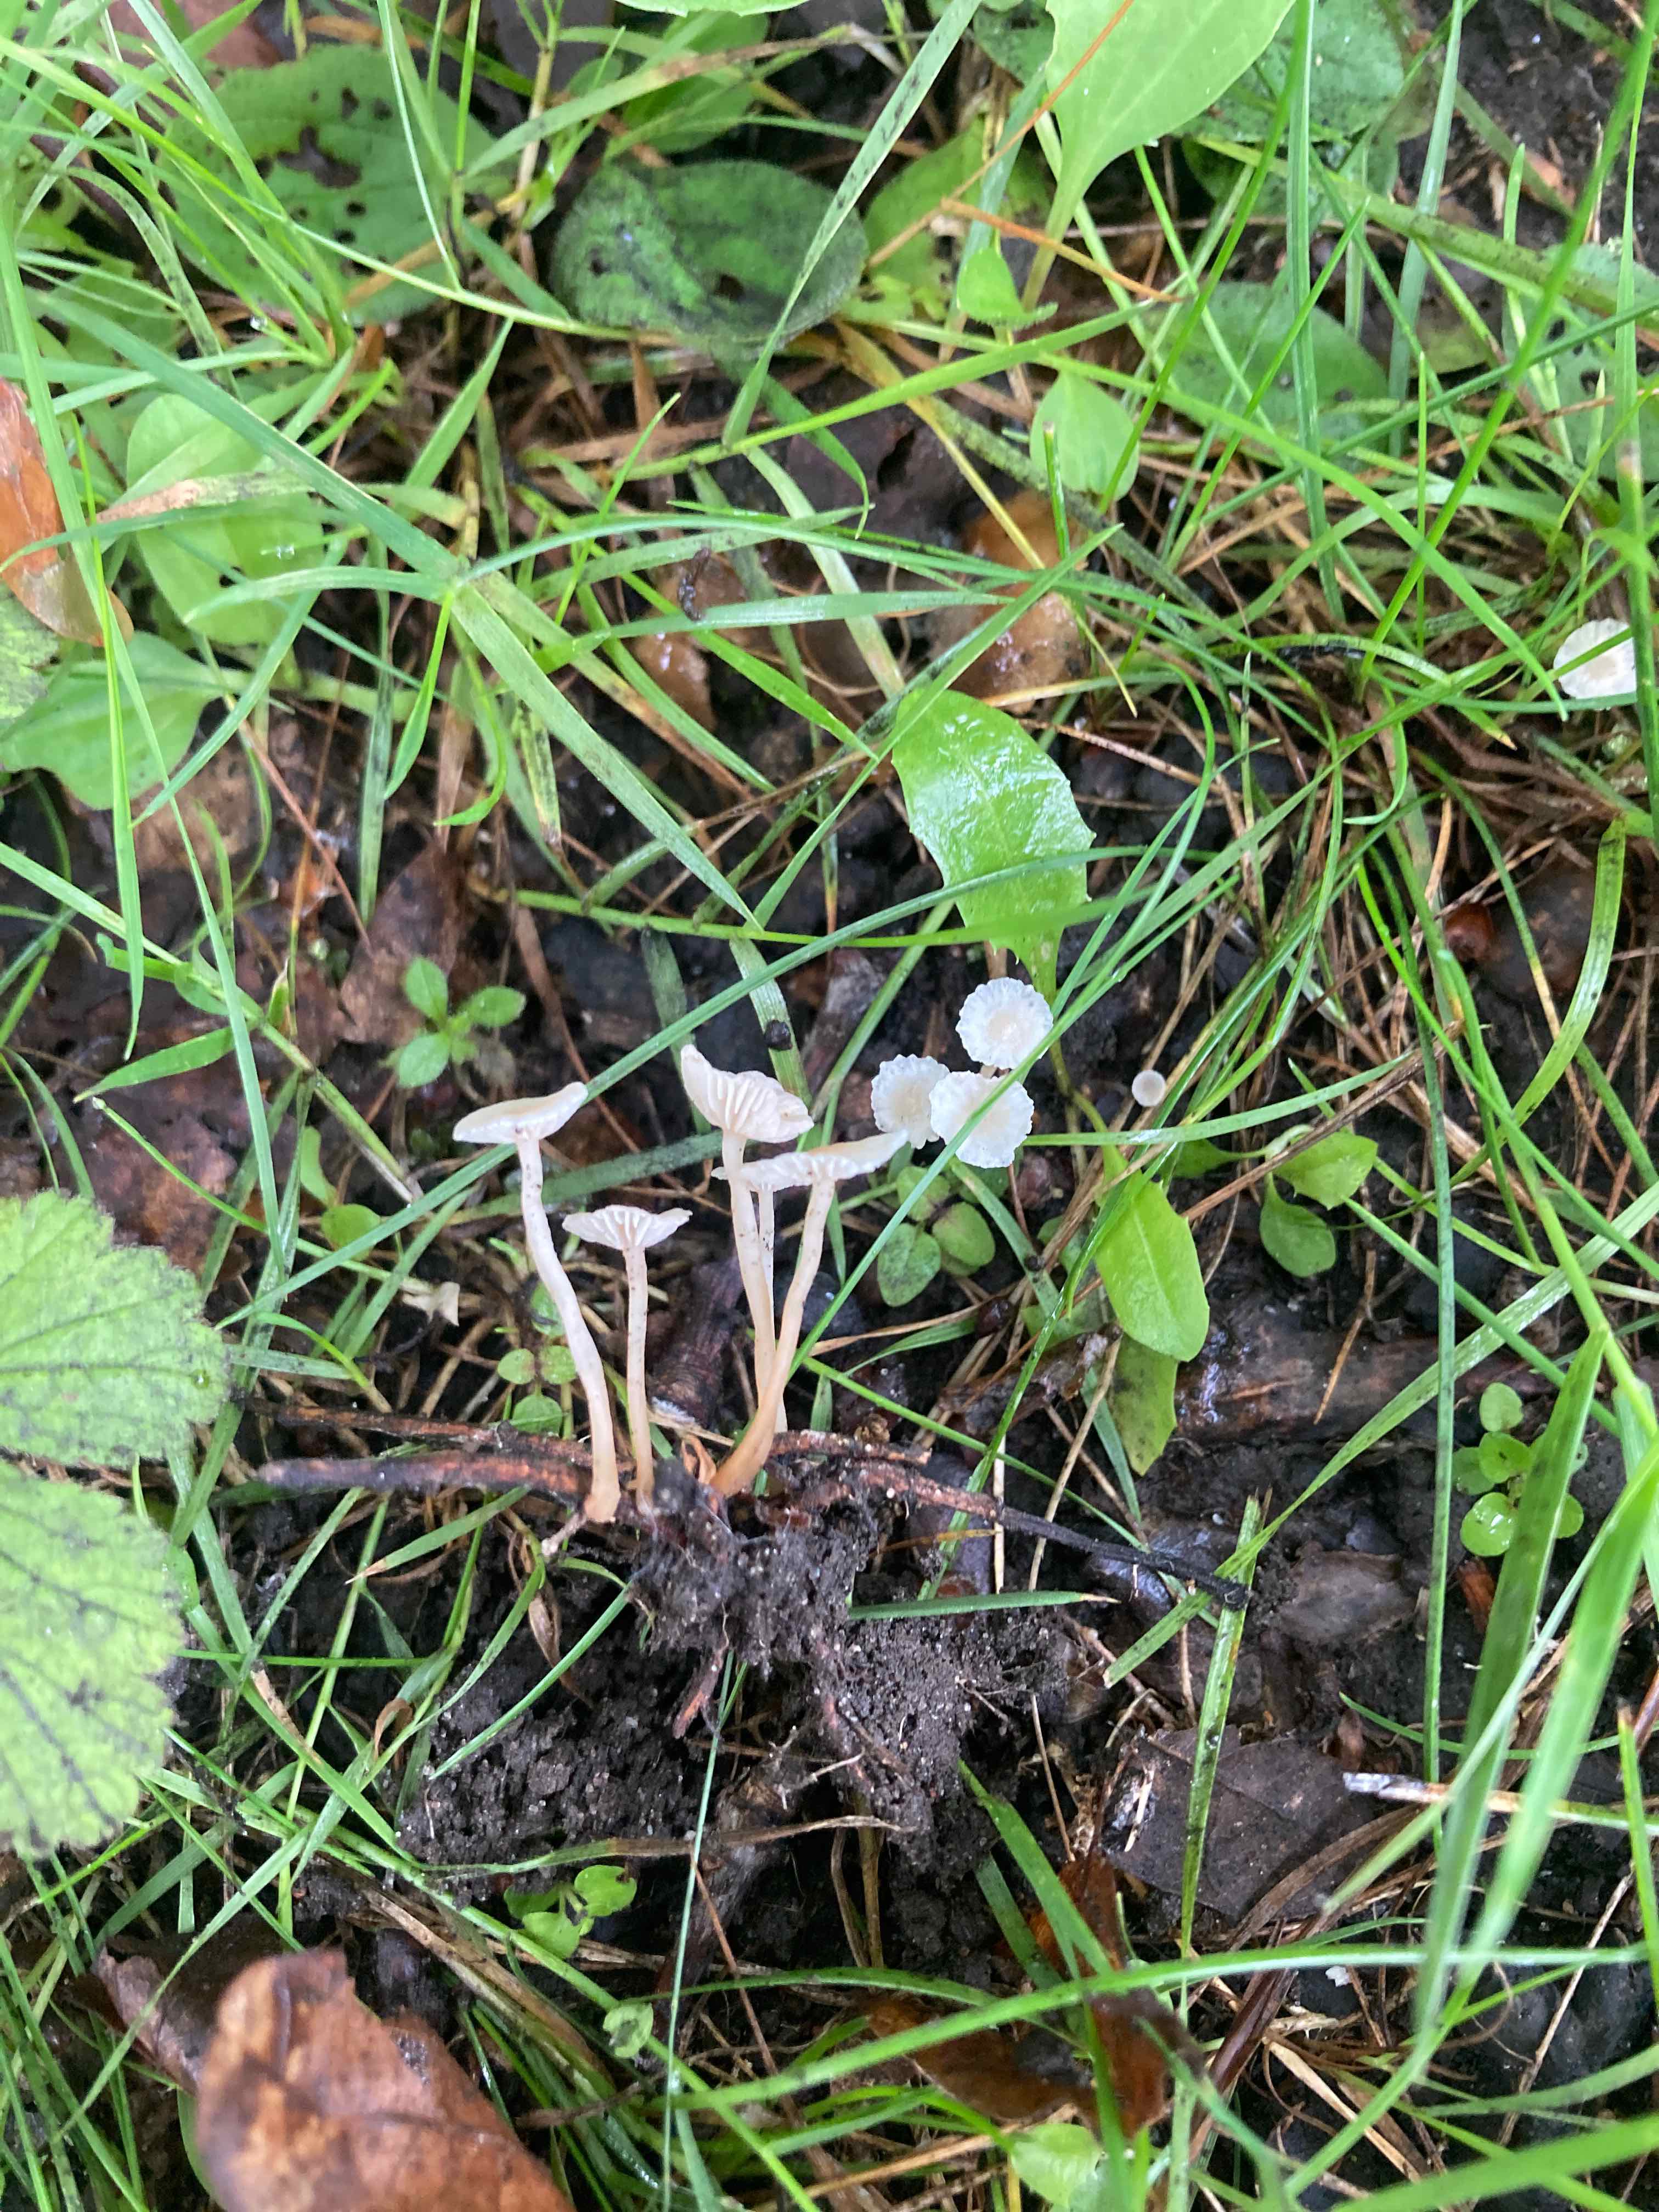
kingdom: Fungi
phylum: Basidiomycota
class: Agaricomycetes
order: Agaricales
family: Omphalotaceae
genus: Collybiopsis
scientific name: Collybiopsis vaillantii
